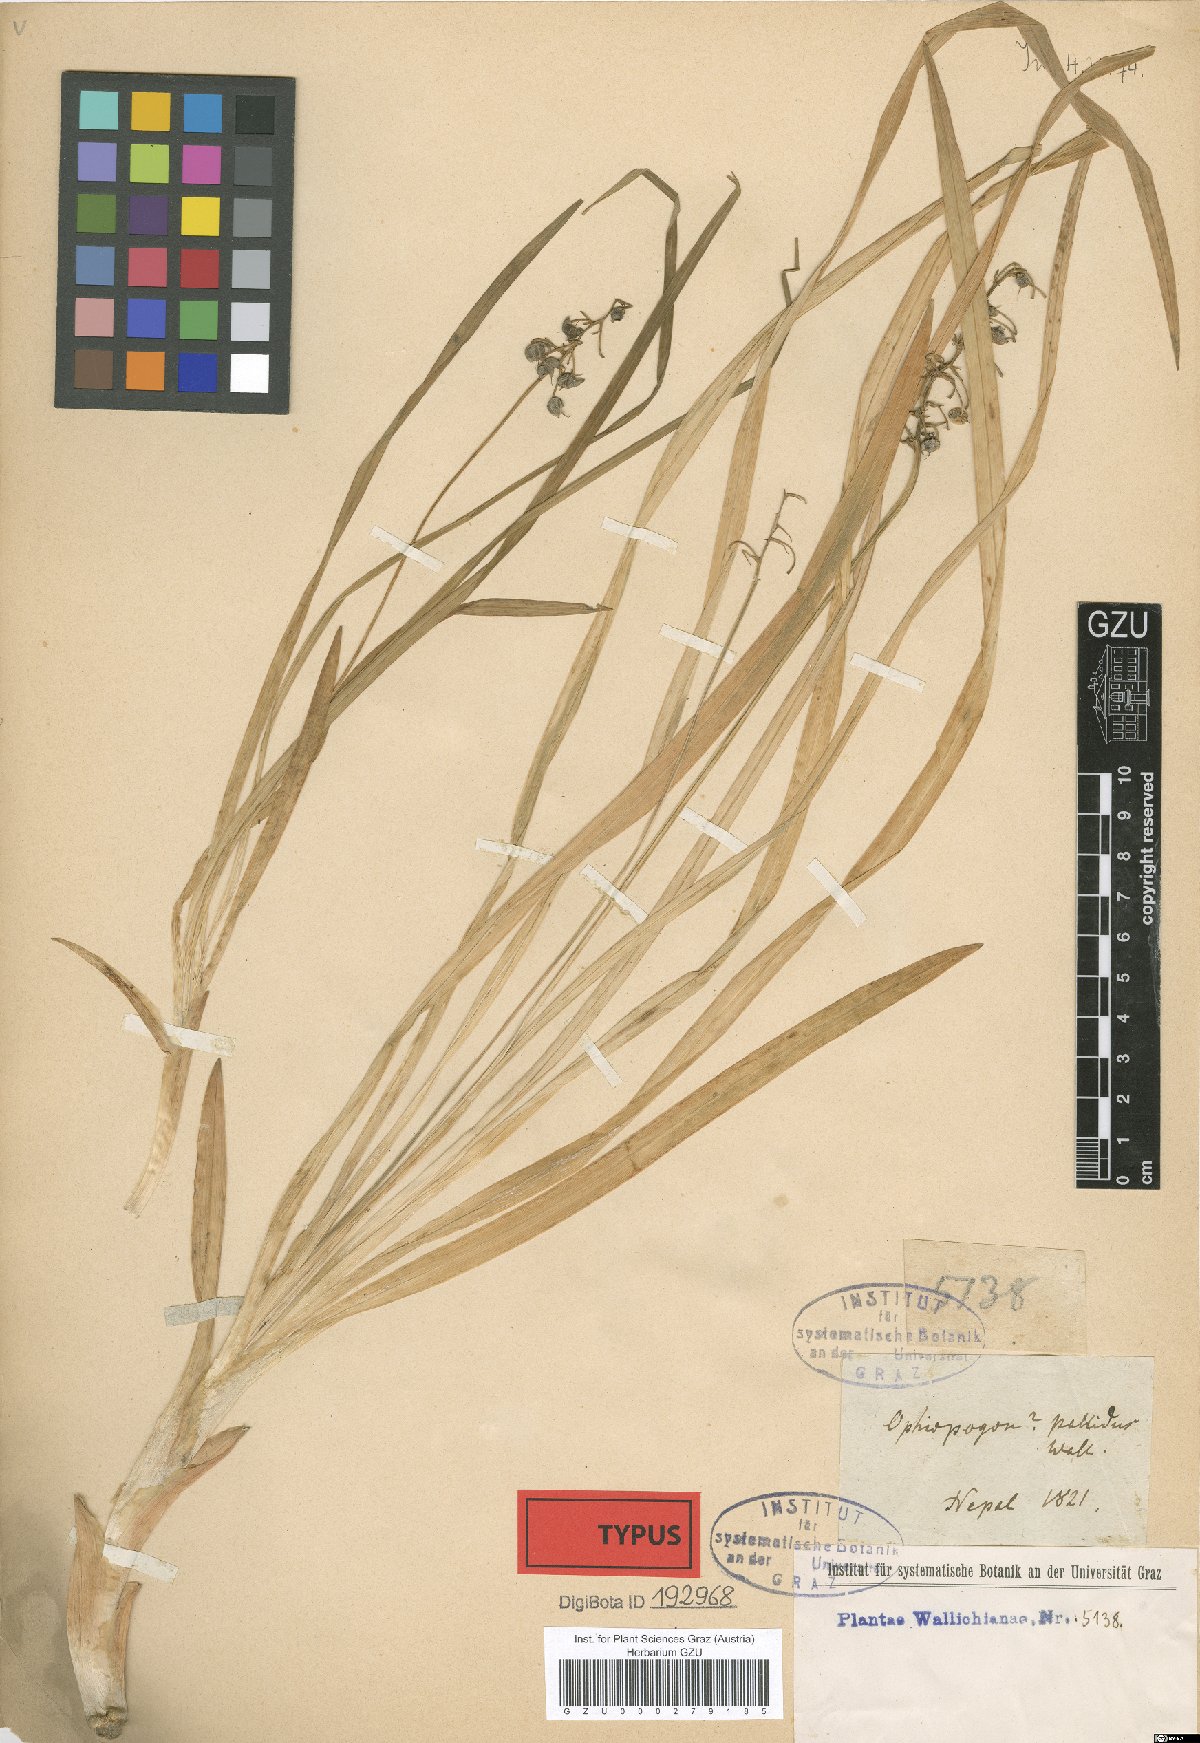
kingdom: Plantae
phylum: Tracheophyta
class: Liliopsida
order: Asparagales
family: Asparagaceae
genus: Theropogon
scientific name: Theropogon pallidus
